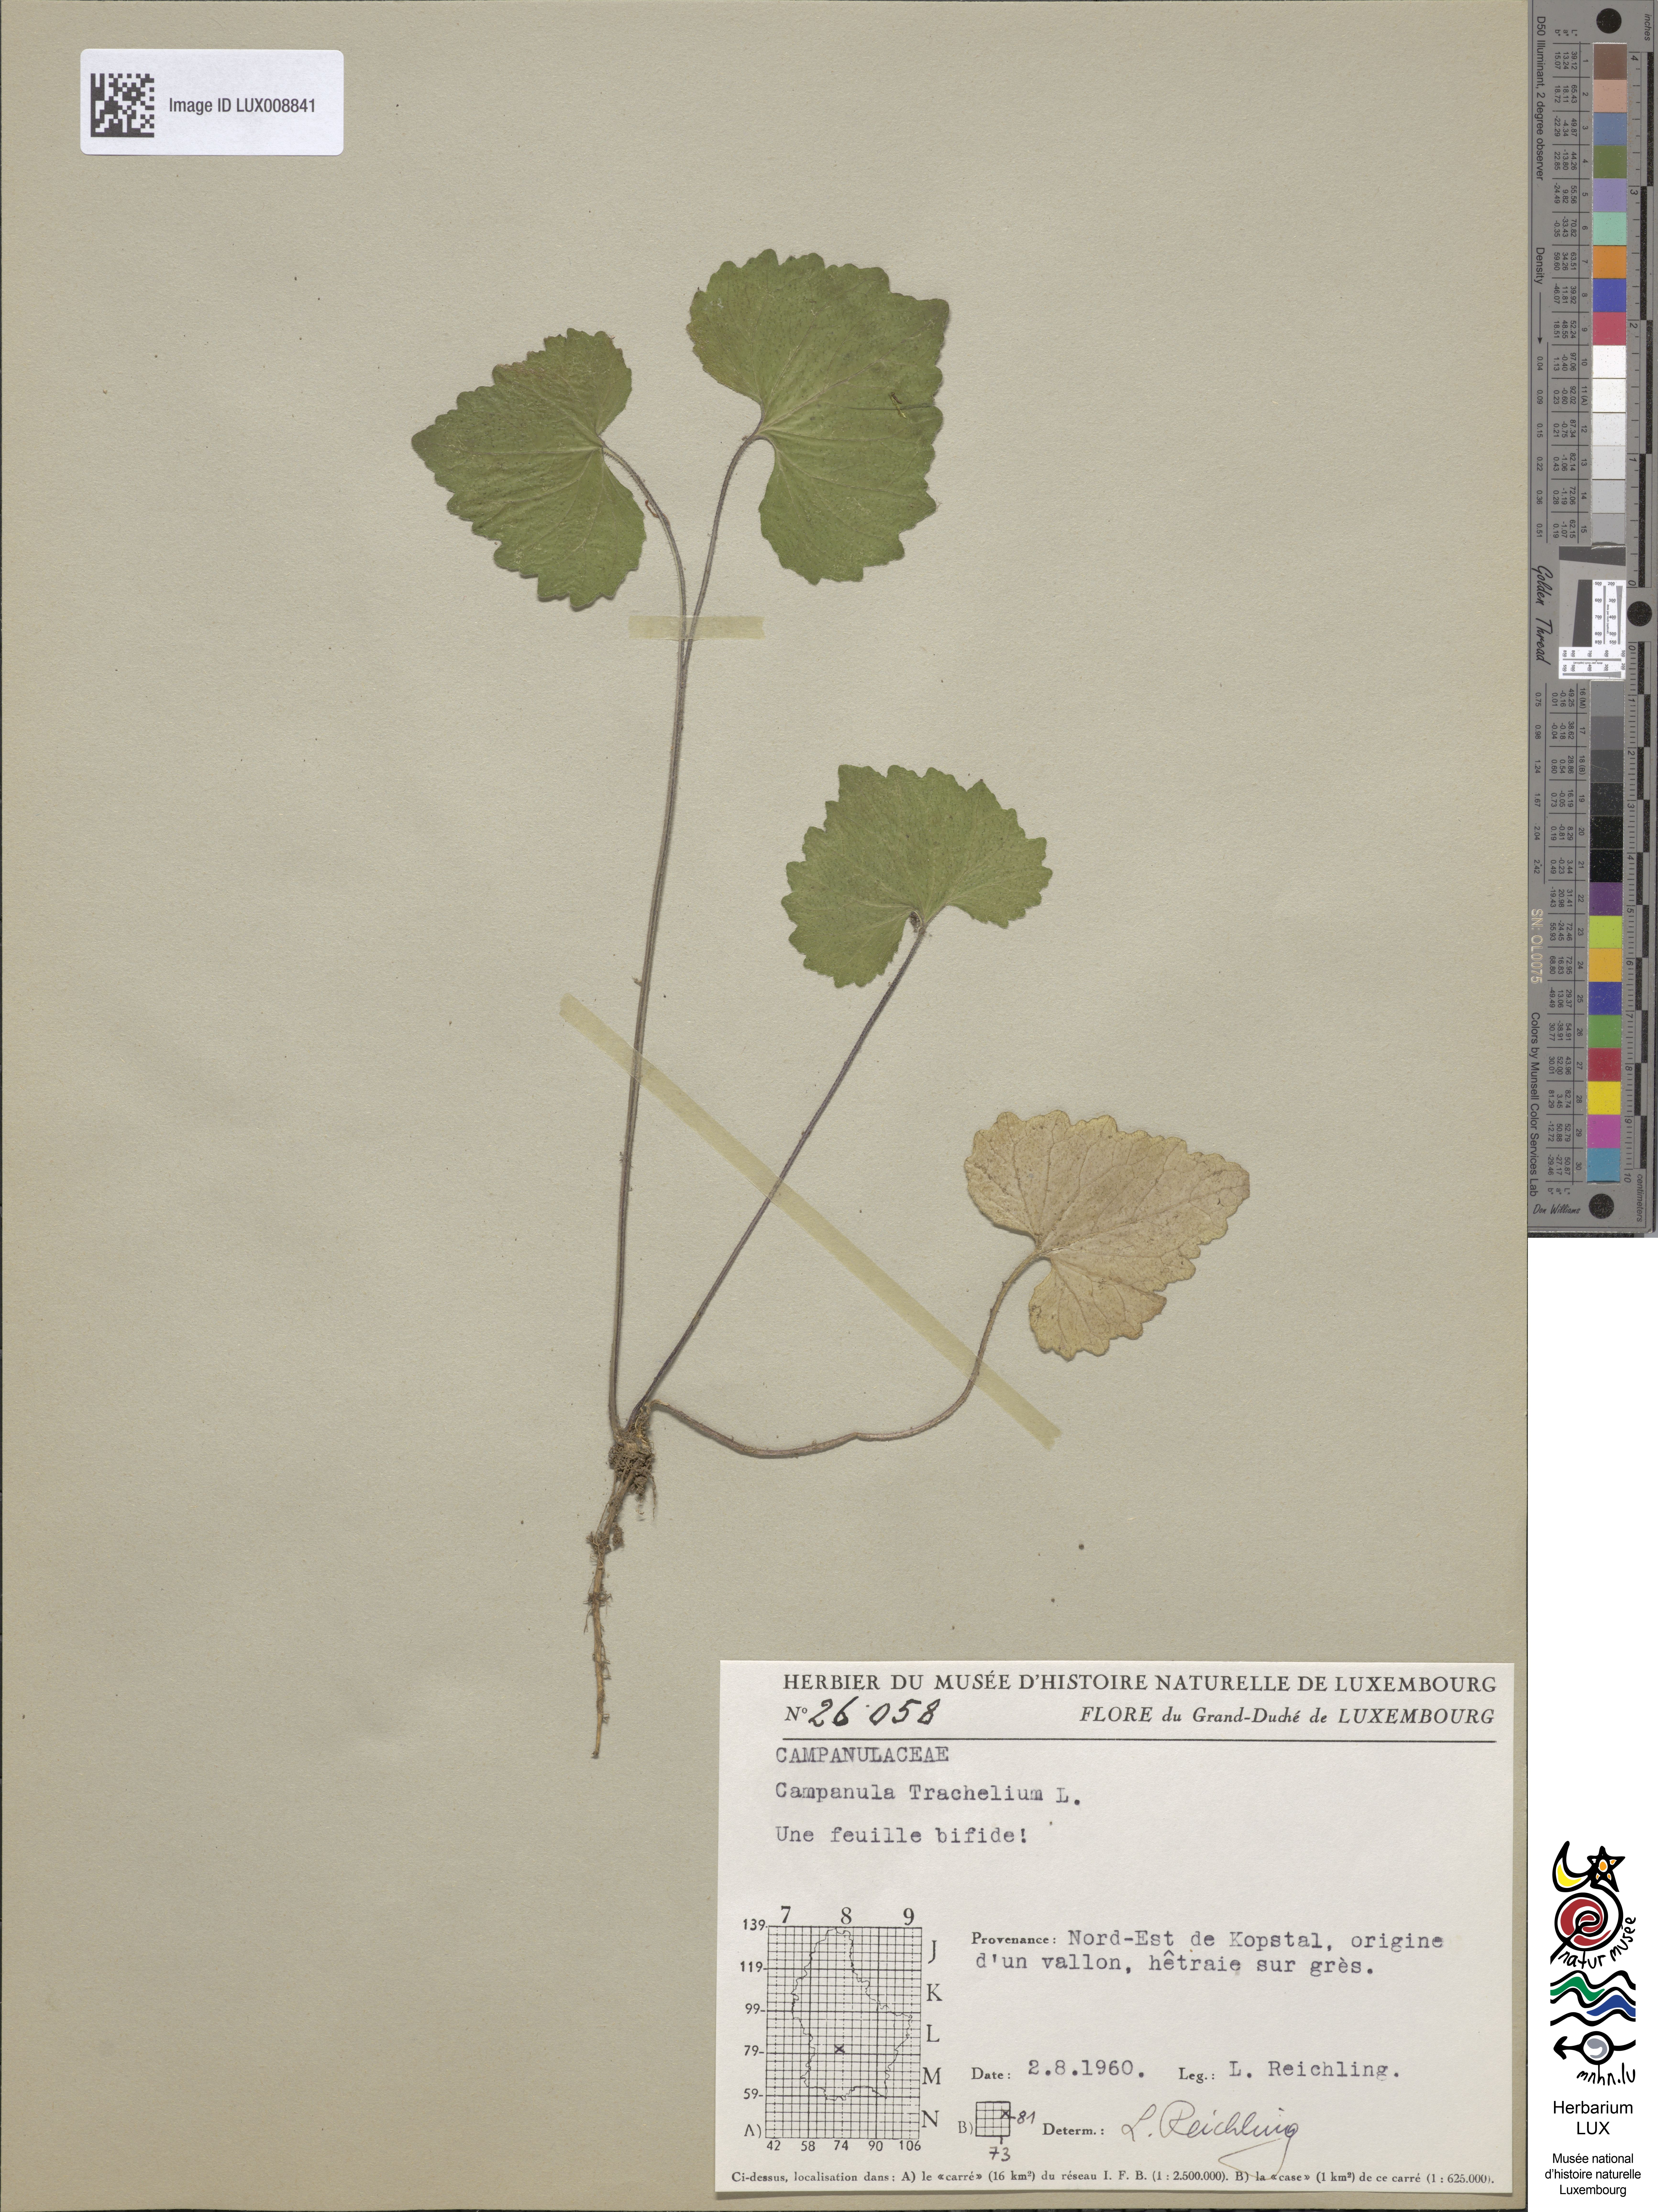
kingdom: Plantae
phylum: Tracheophyta
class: Magnoliopsida
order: Asterales
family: Campanulaceae
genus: Campanula
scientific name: Campanula trachelium
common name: Nettle-leaved bellflower
